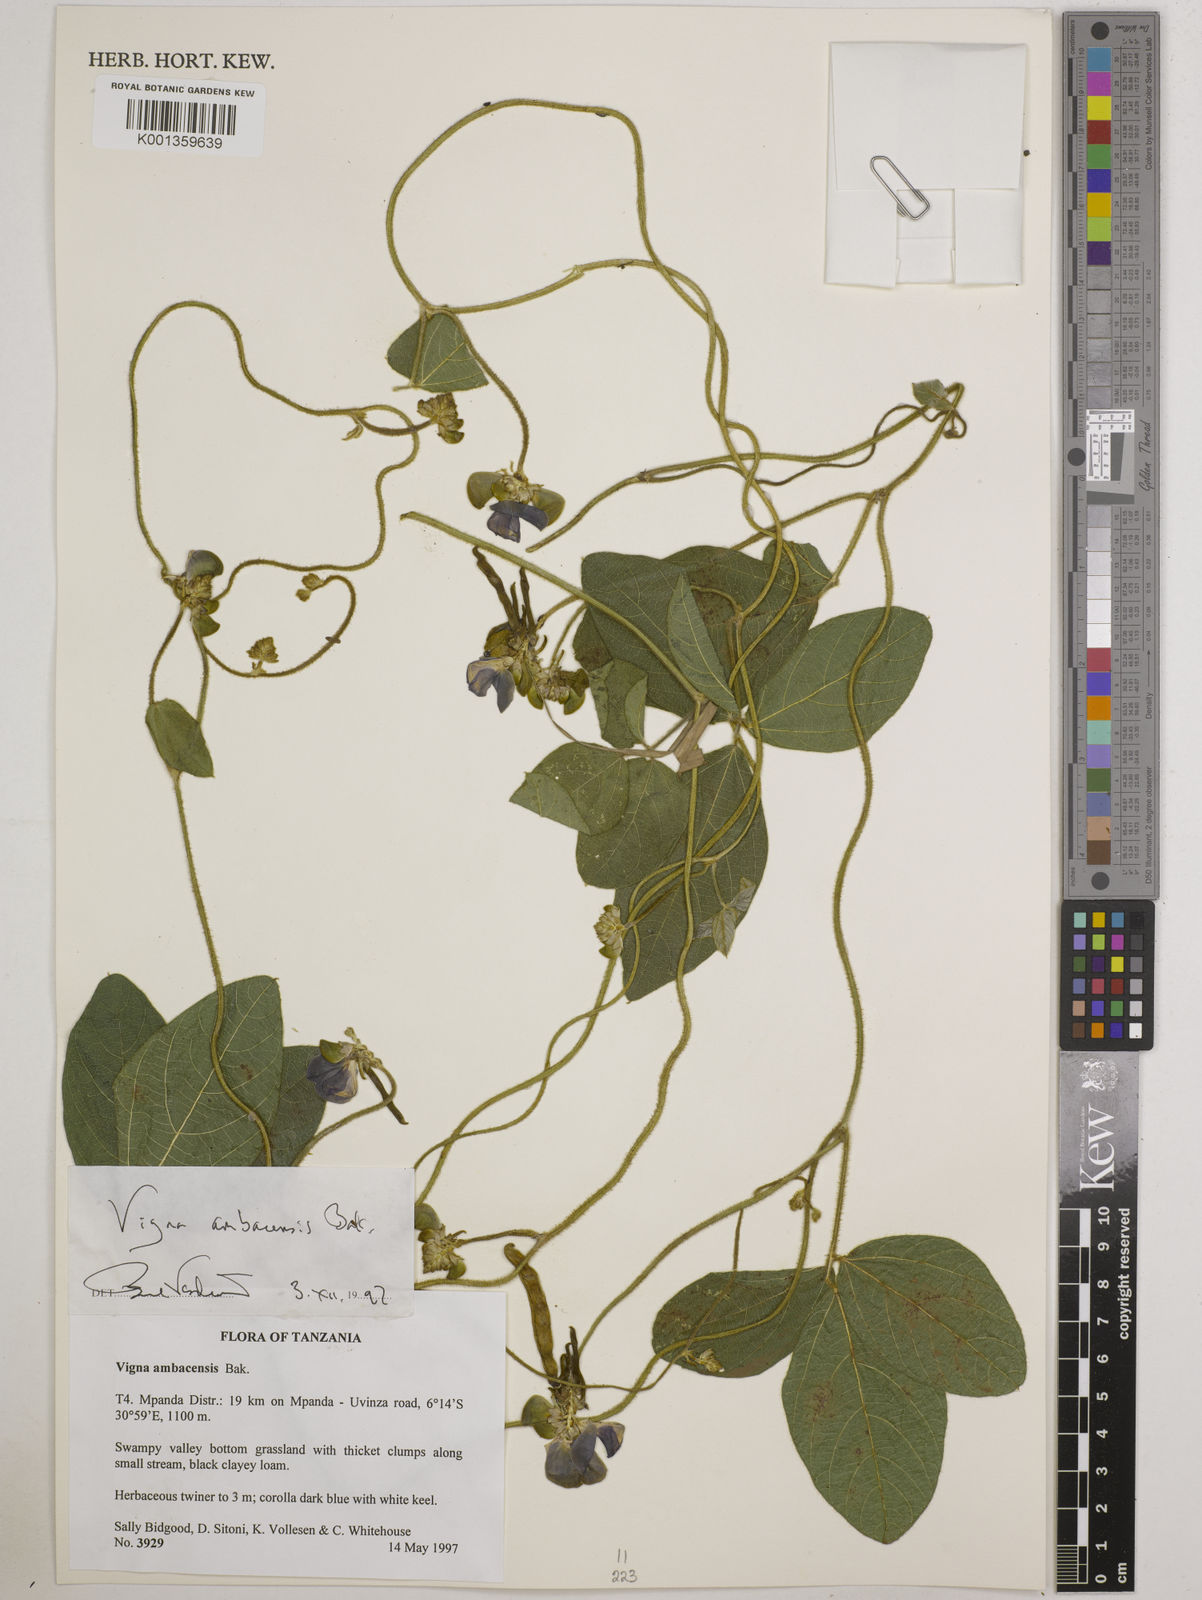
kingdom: Plantae
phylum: Tracheophyta
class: Magnoliopsida
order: Fabales
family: Fabaceae
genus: Vigna
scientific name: Vigna ambacensis
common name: Tsarkiyan zomo
